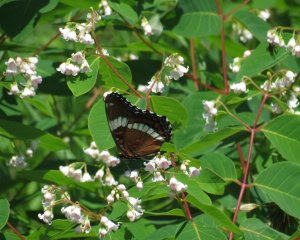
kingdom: Animalia
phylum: Arthropoda
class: Insecta
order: Lepidoptera
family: Nymphalidae
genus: Limenitis
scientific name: Limenitis arthemis
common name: Red-spotted Admiral
